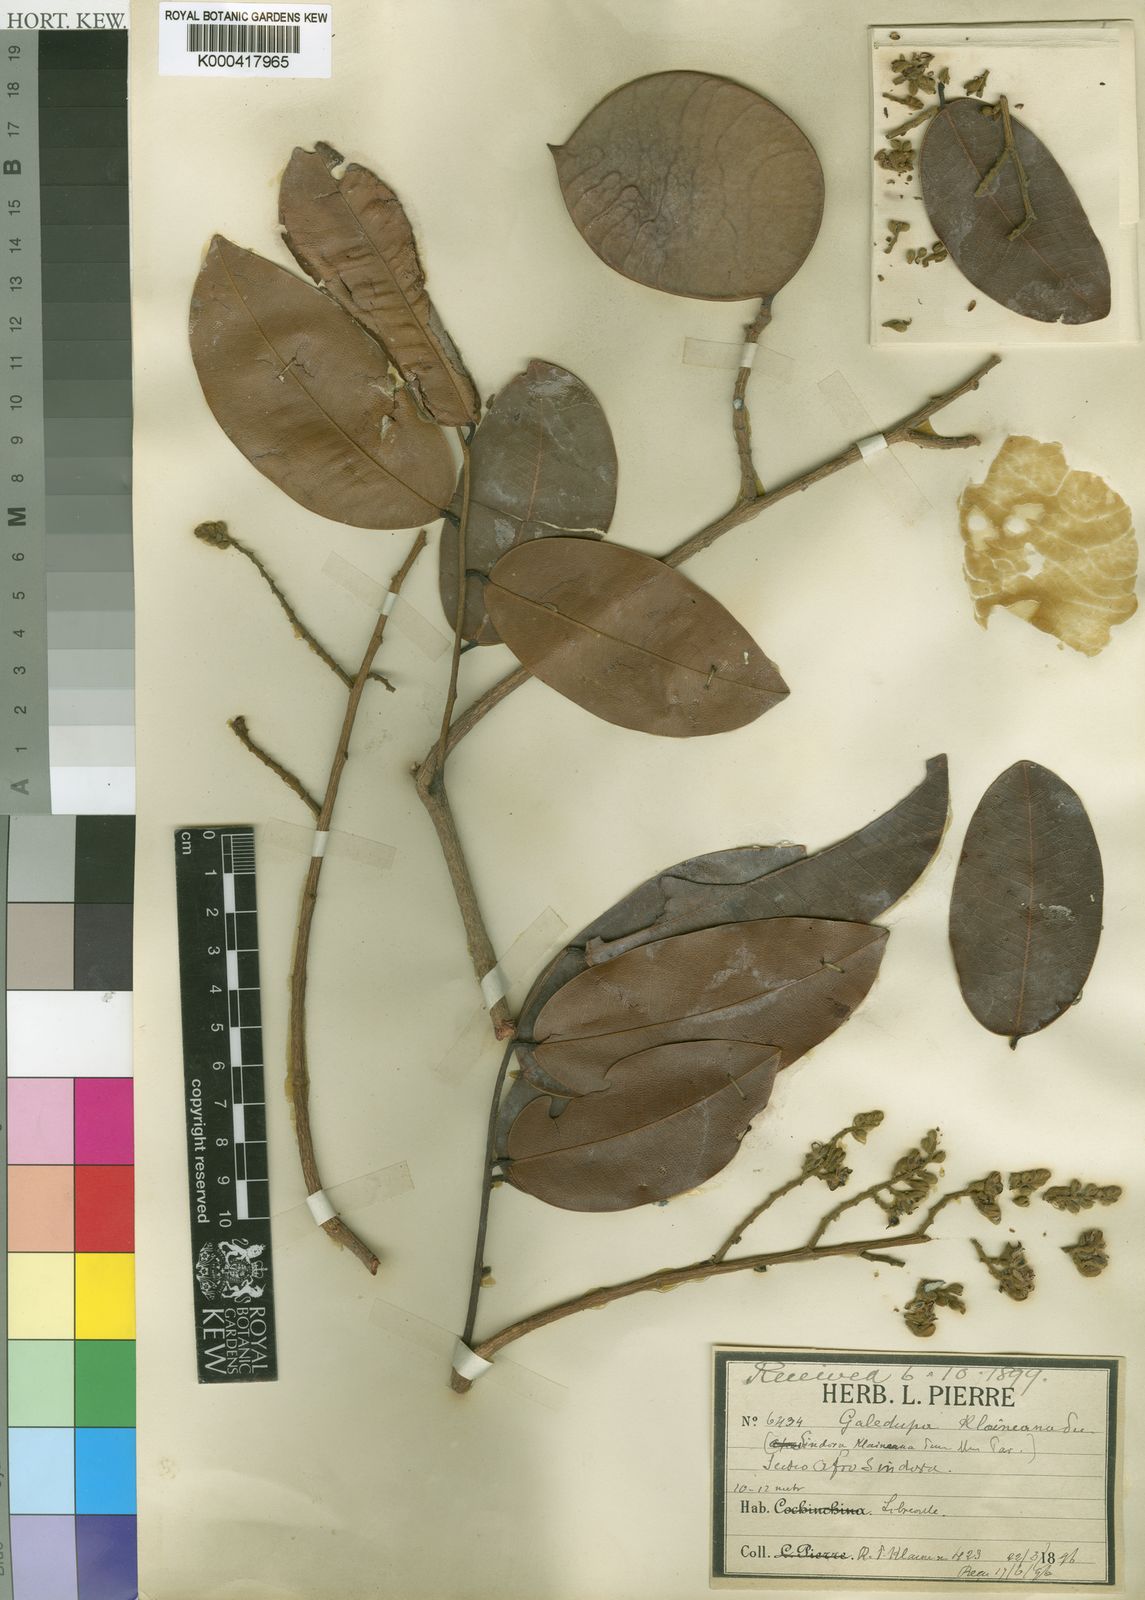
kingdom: Plantae
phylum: Tracheophyta
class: Magnoliopsida
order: Fabales
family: Fabaceae
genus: Sindora
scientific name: Sindora klaineana
